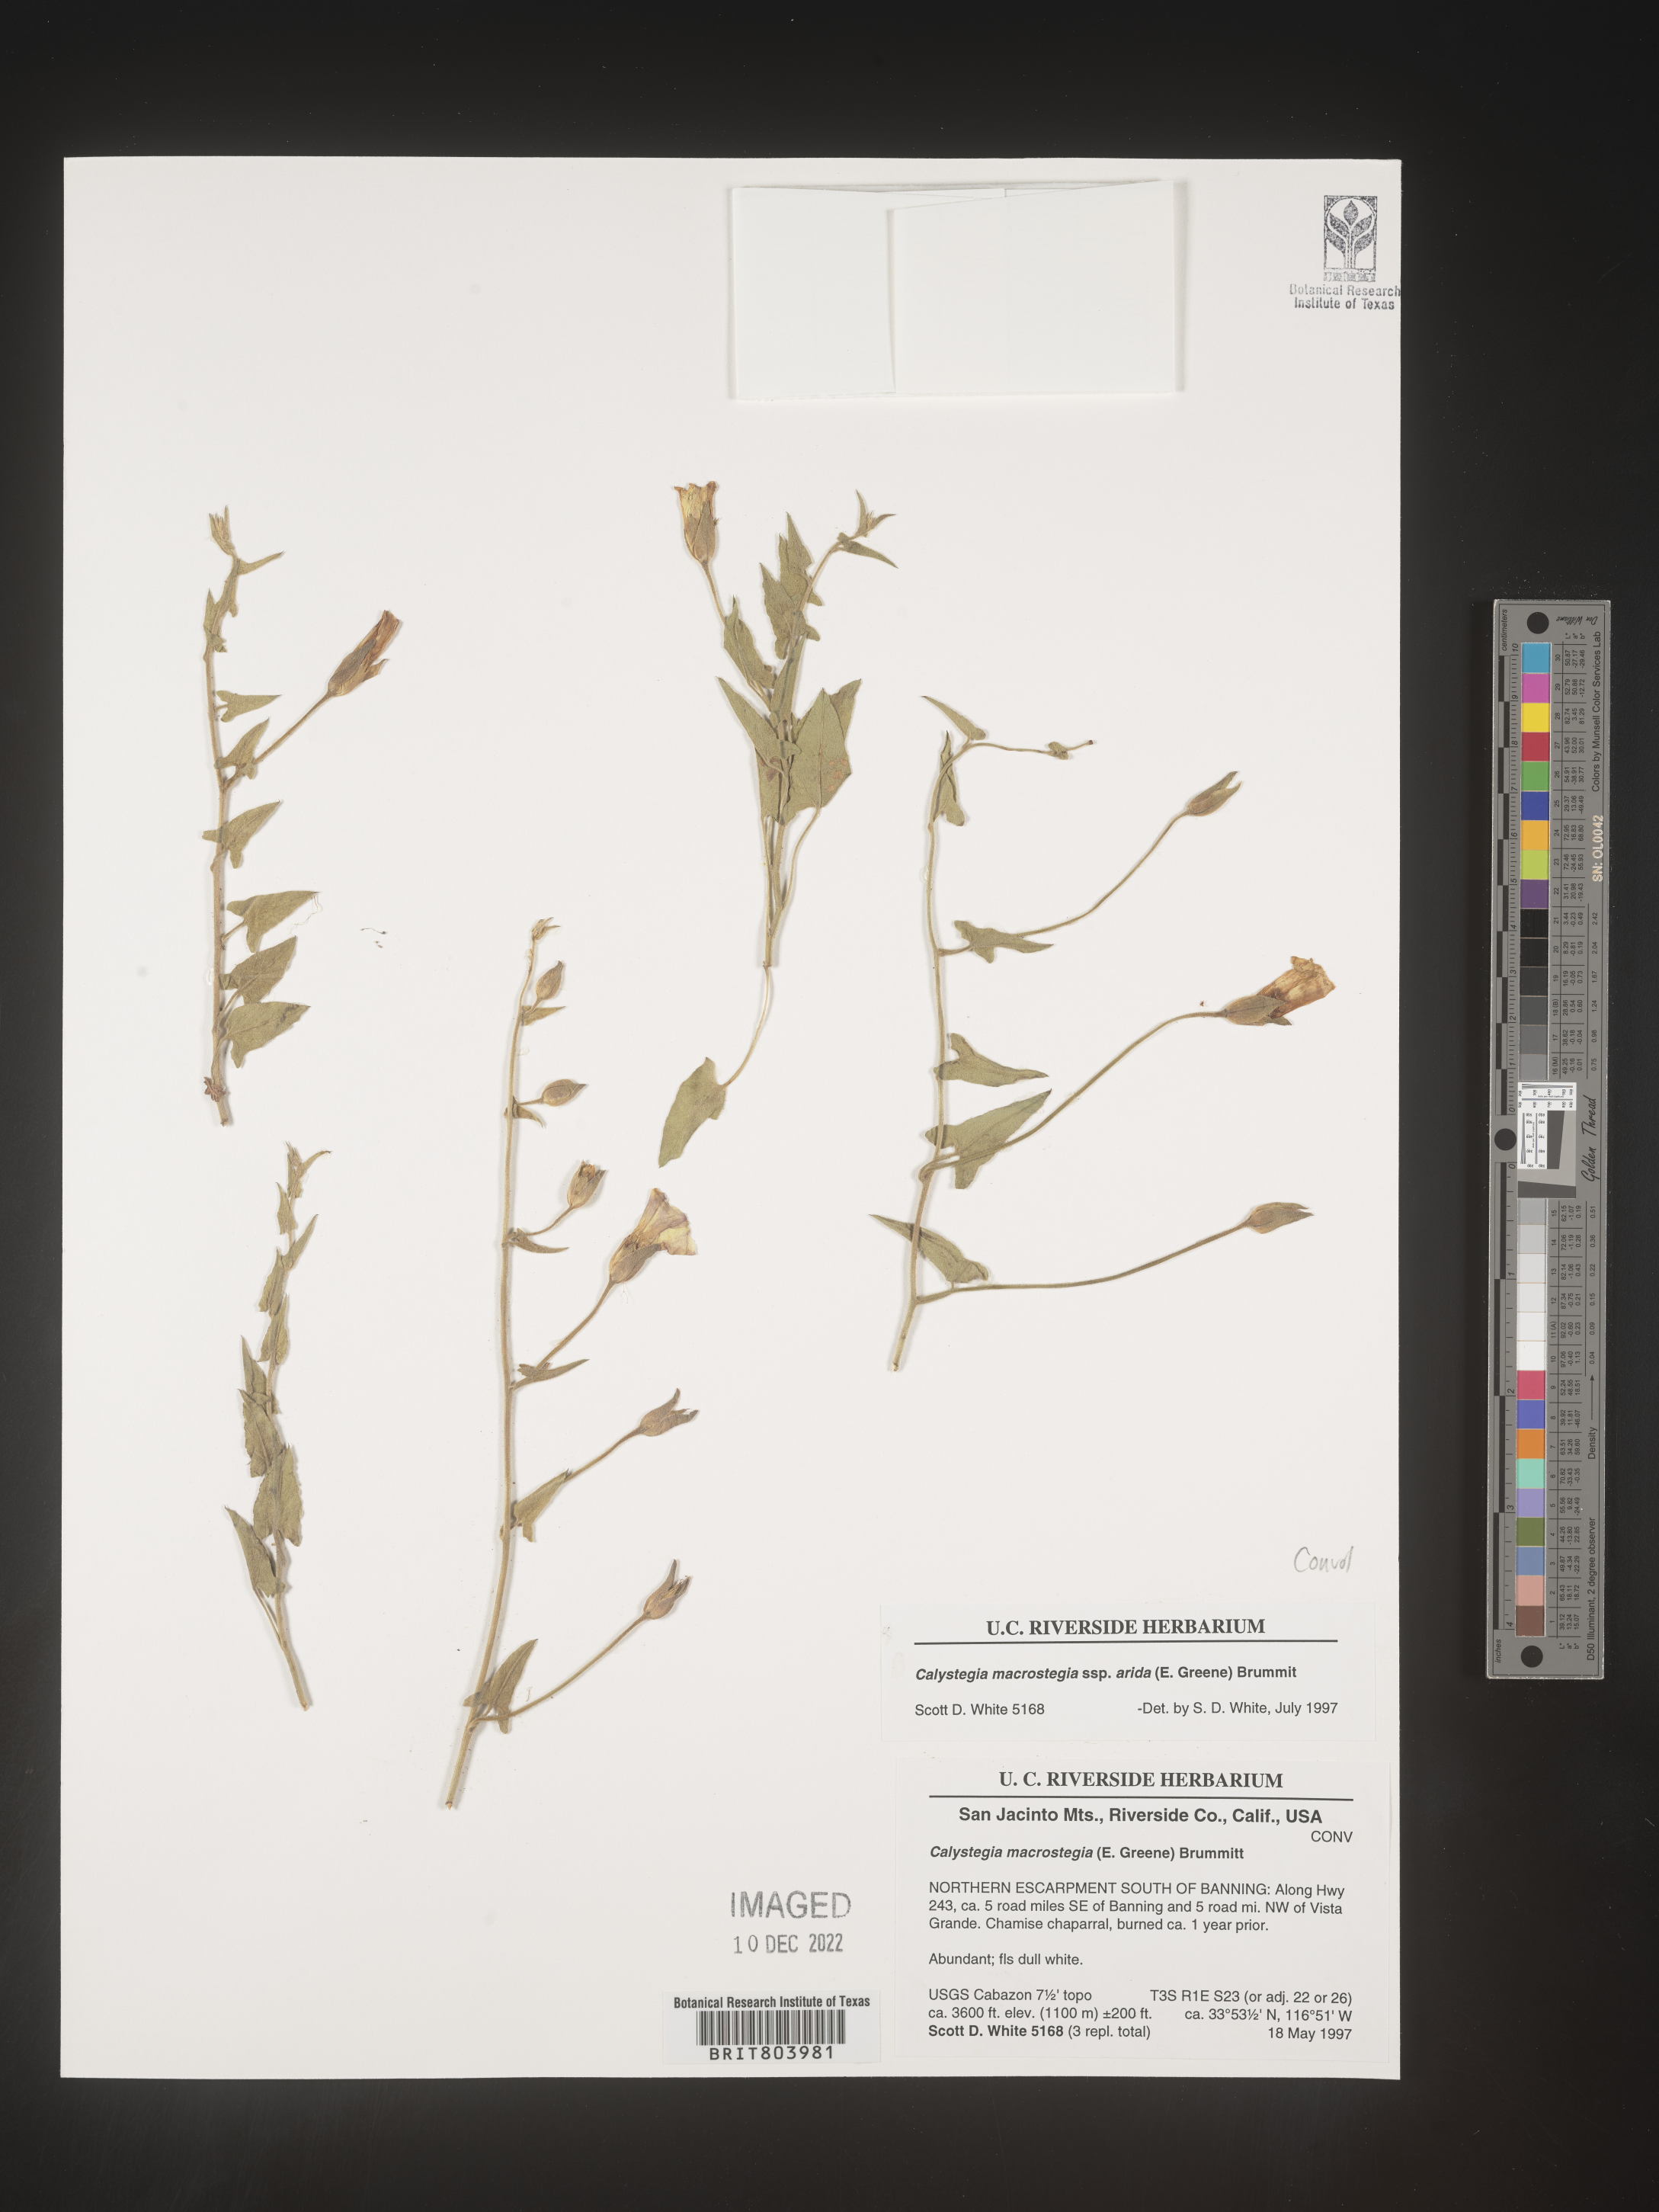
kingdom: Plantae
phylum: Tracheophyta
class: Magnoliopsida
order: Solanales
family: Convolvulaceae
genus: Calystegia
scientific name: Calystegia
